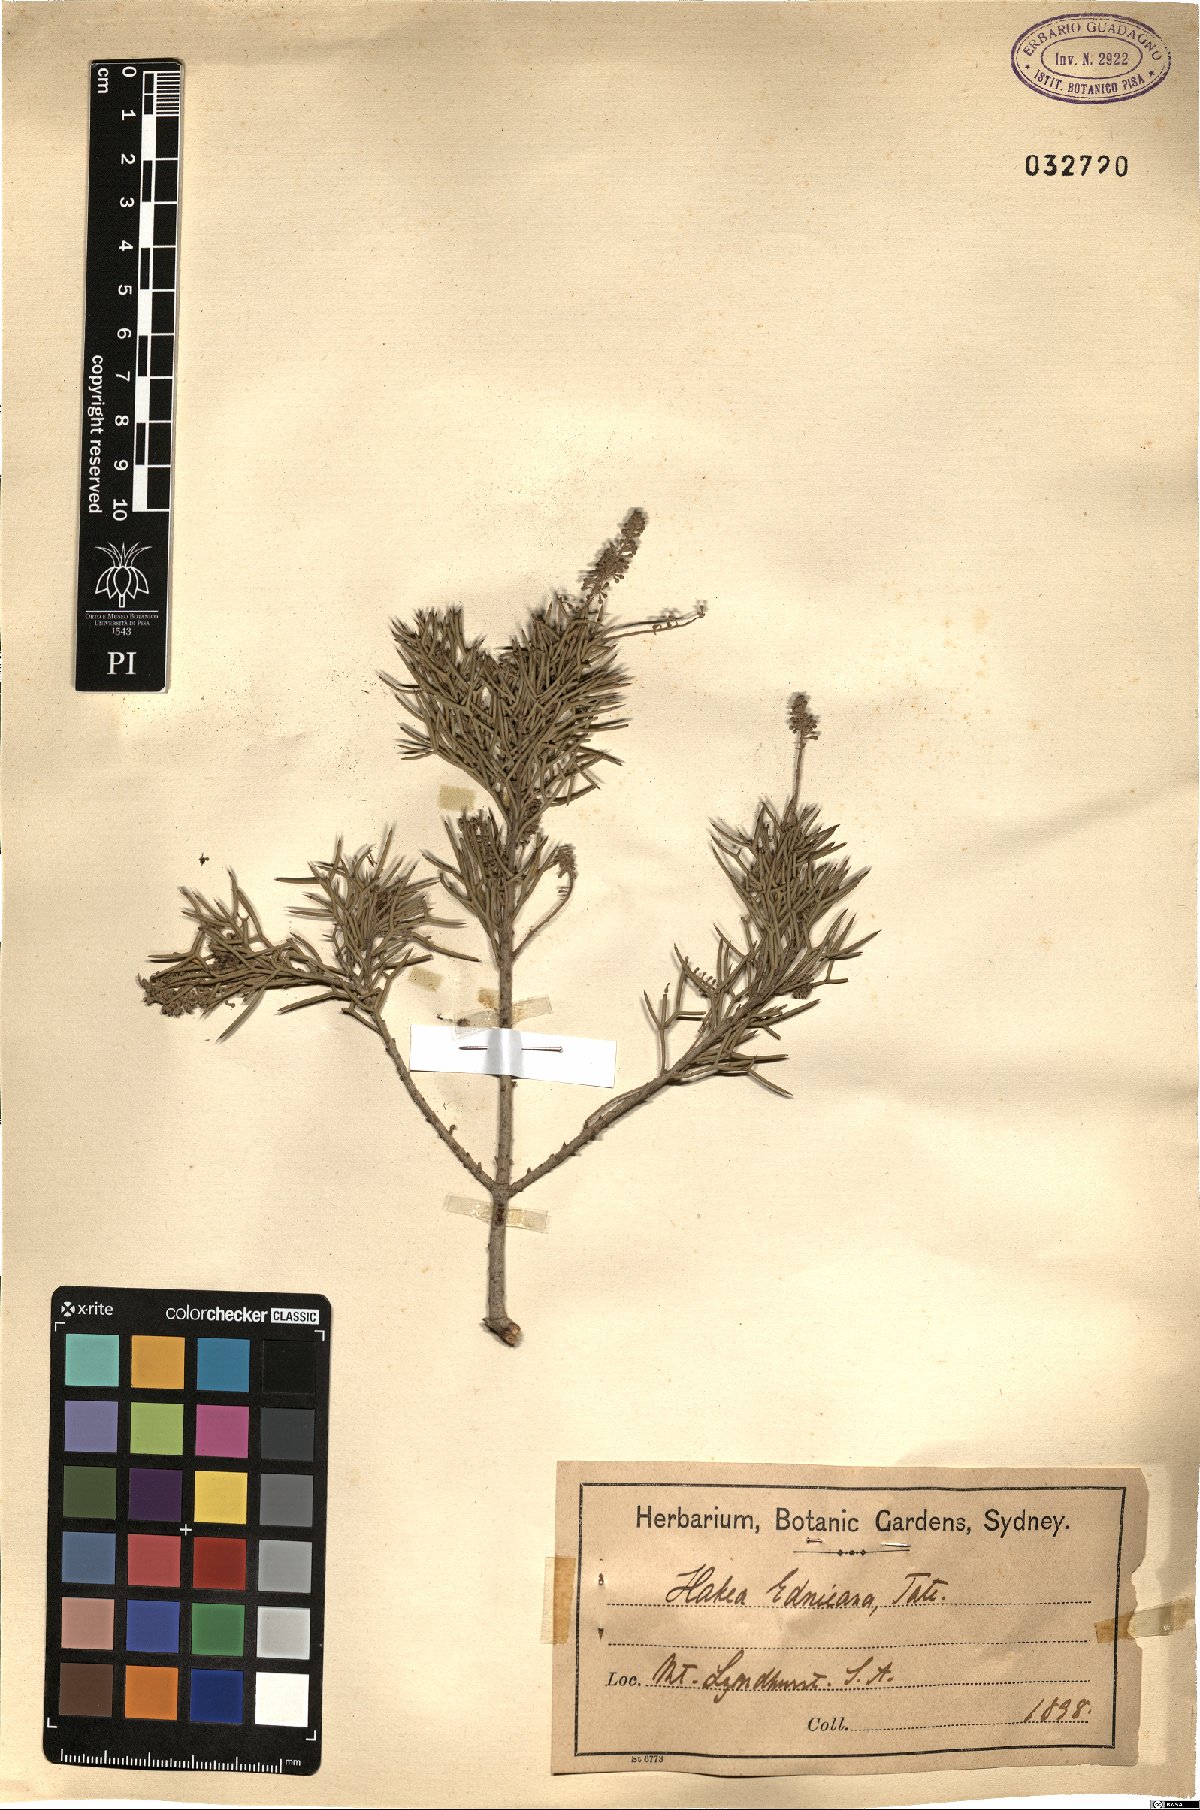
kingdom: Plantae
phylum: Tracheophyta
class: Magnoliopsida
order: Proteales
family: Proteaceae
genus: Hakea
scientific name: Hakea ednieana
